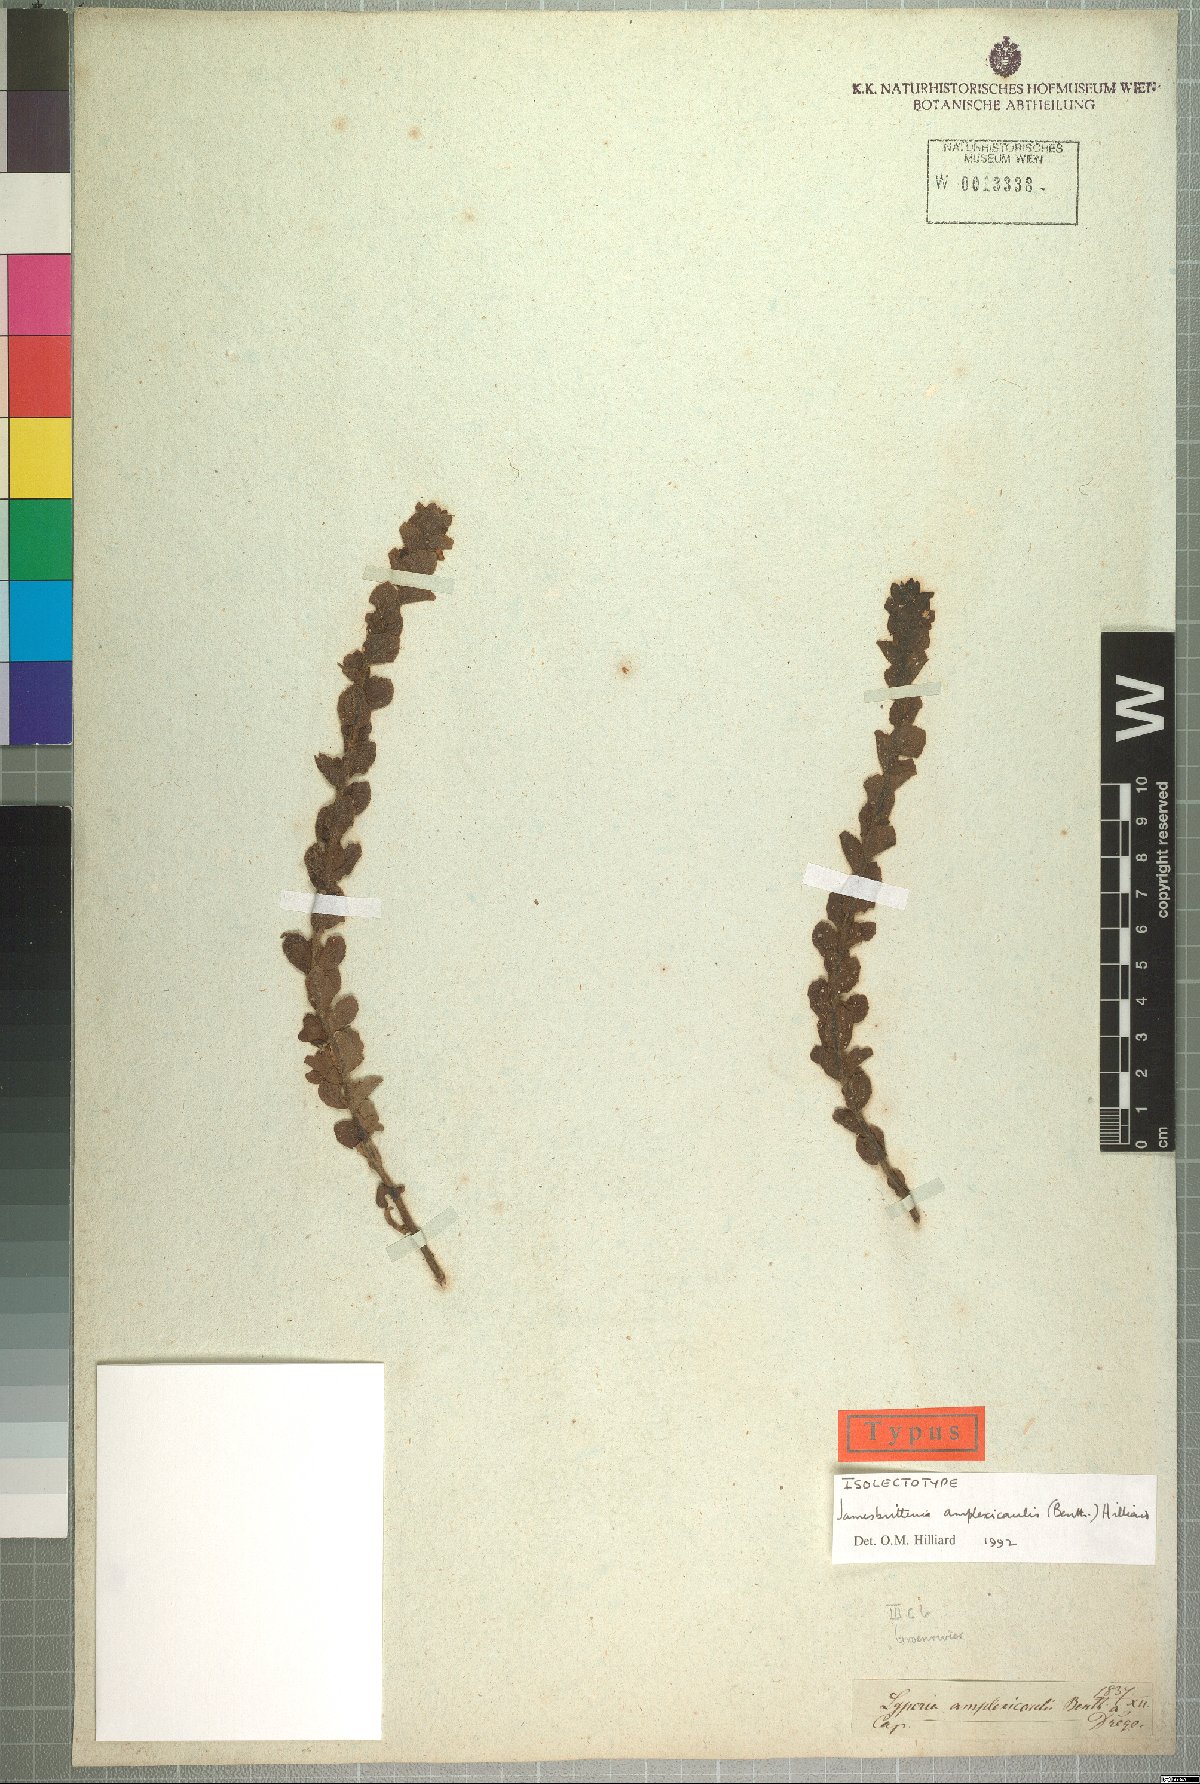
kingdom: Plantae
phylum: Tracheophyta
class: Magnoliopsida
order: Lamiales
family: Scrophulariaceae
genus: Jamesbrittenia
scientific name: Jamesbrittenia amplexicaulis
